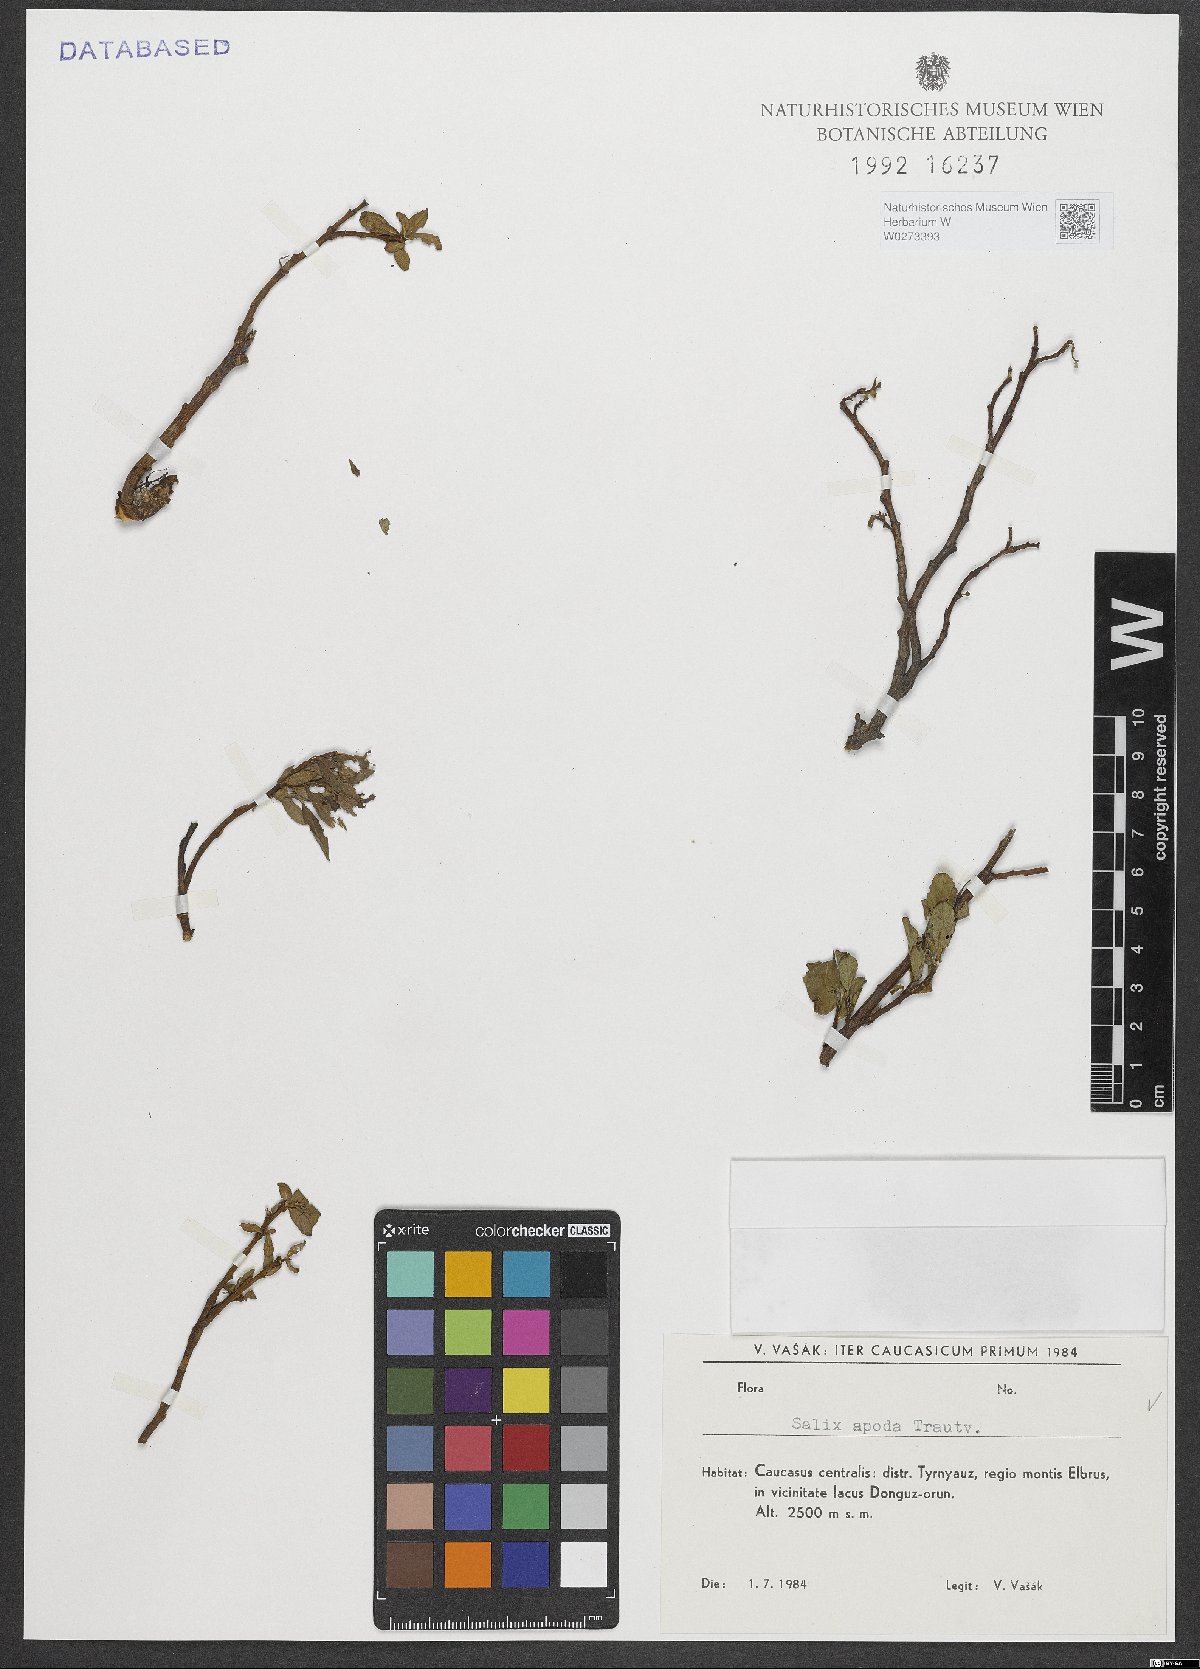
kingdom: Plantae
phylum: Tracheophyta
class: Magnoliopsida
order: Malpighiales
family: Salicaceae
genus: Salix
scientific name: Salix apoda
